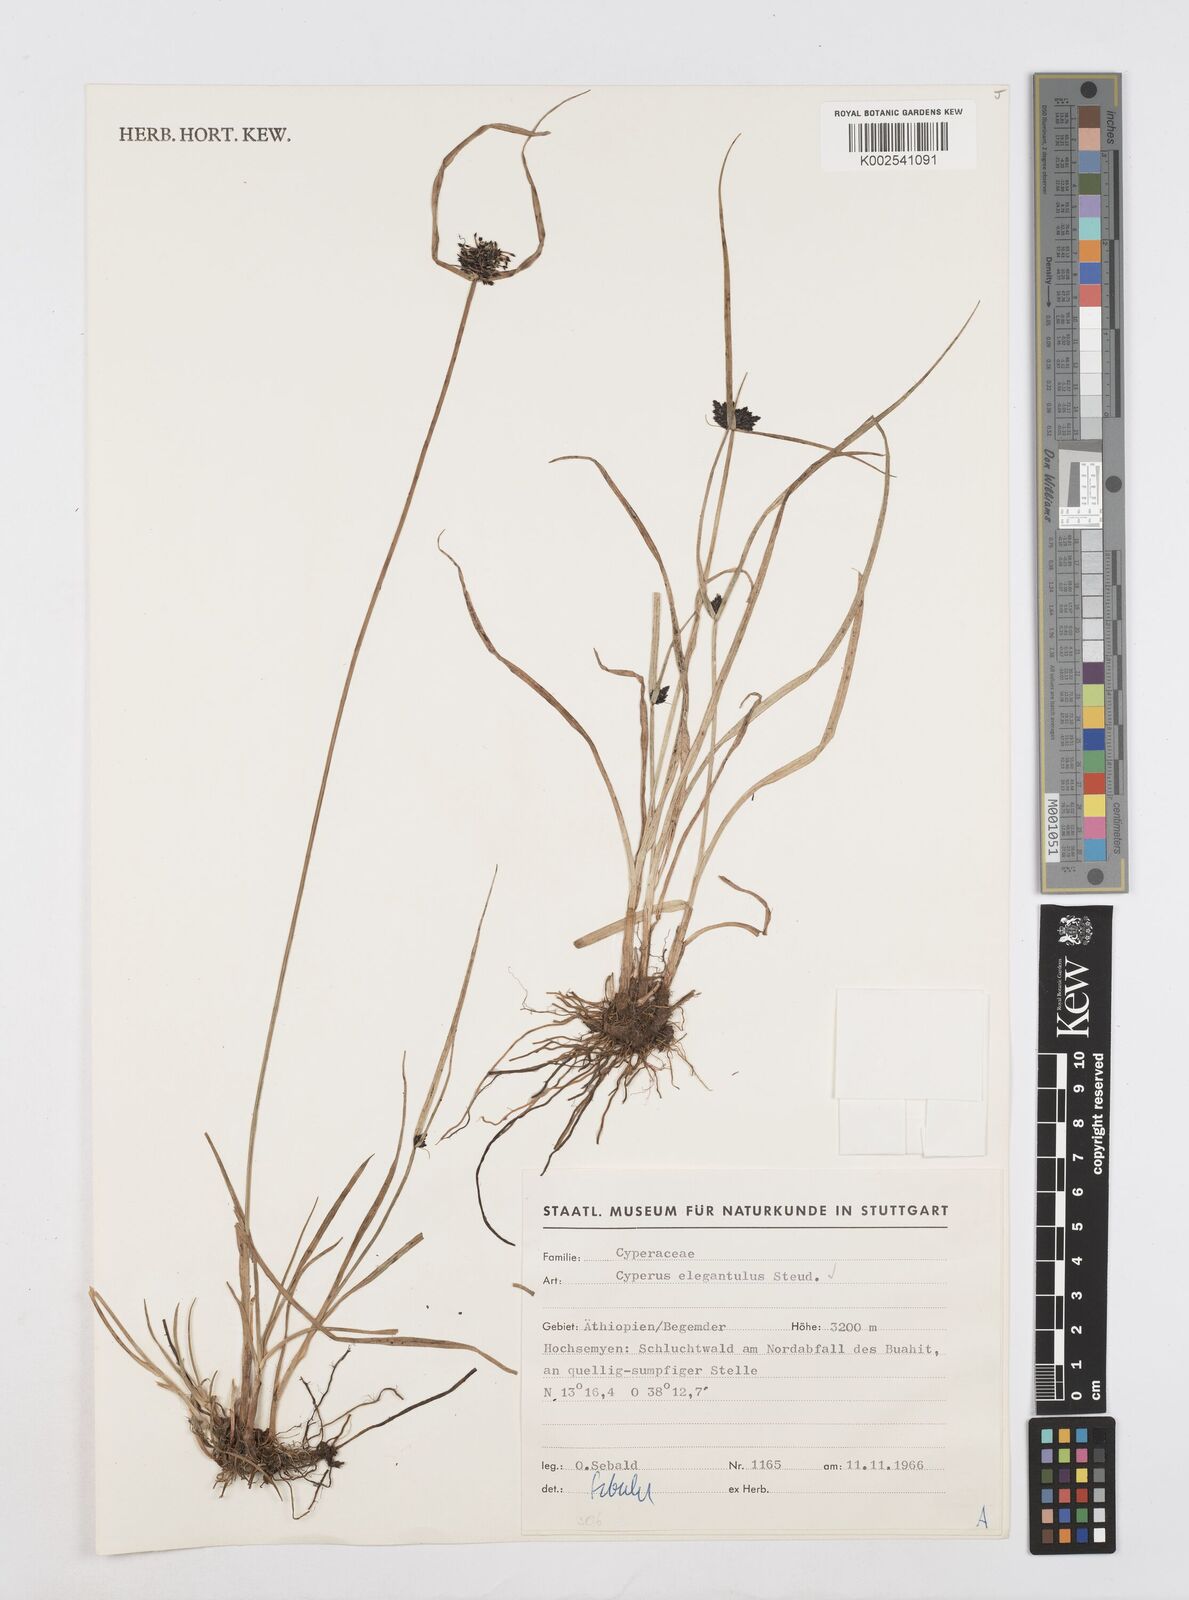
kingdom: Plantae
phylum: Tracheophyta
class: Liliopsida
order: Poales
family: Cyperaceae
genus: Cyperus
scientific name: Cyperus elegantulus
